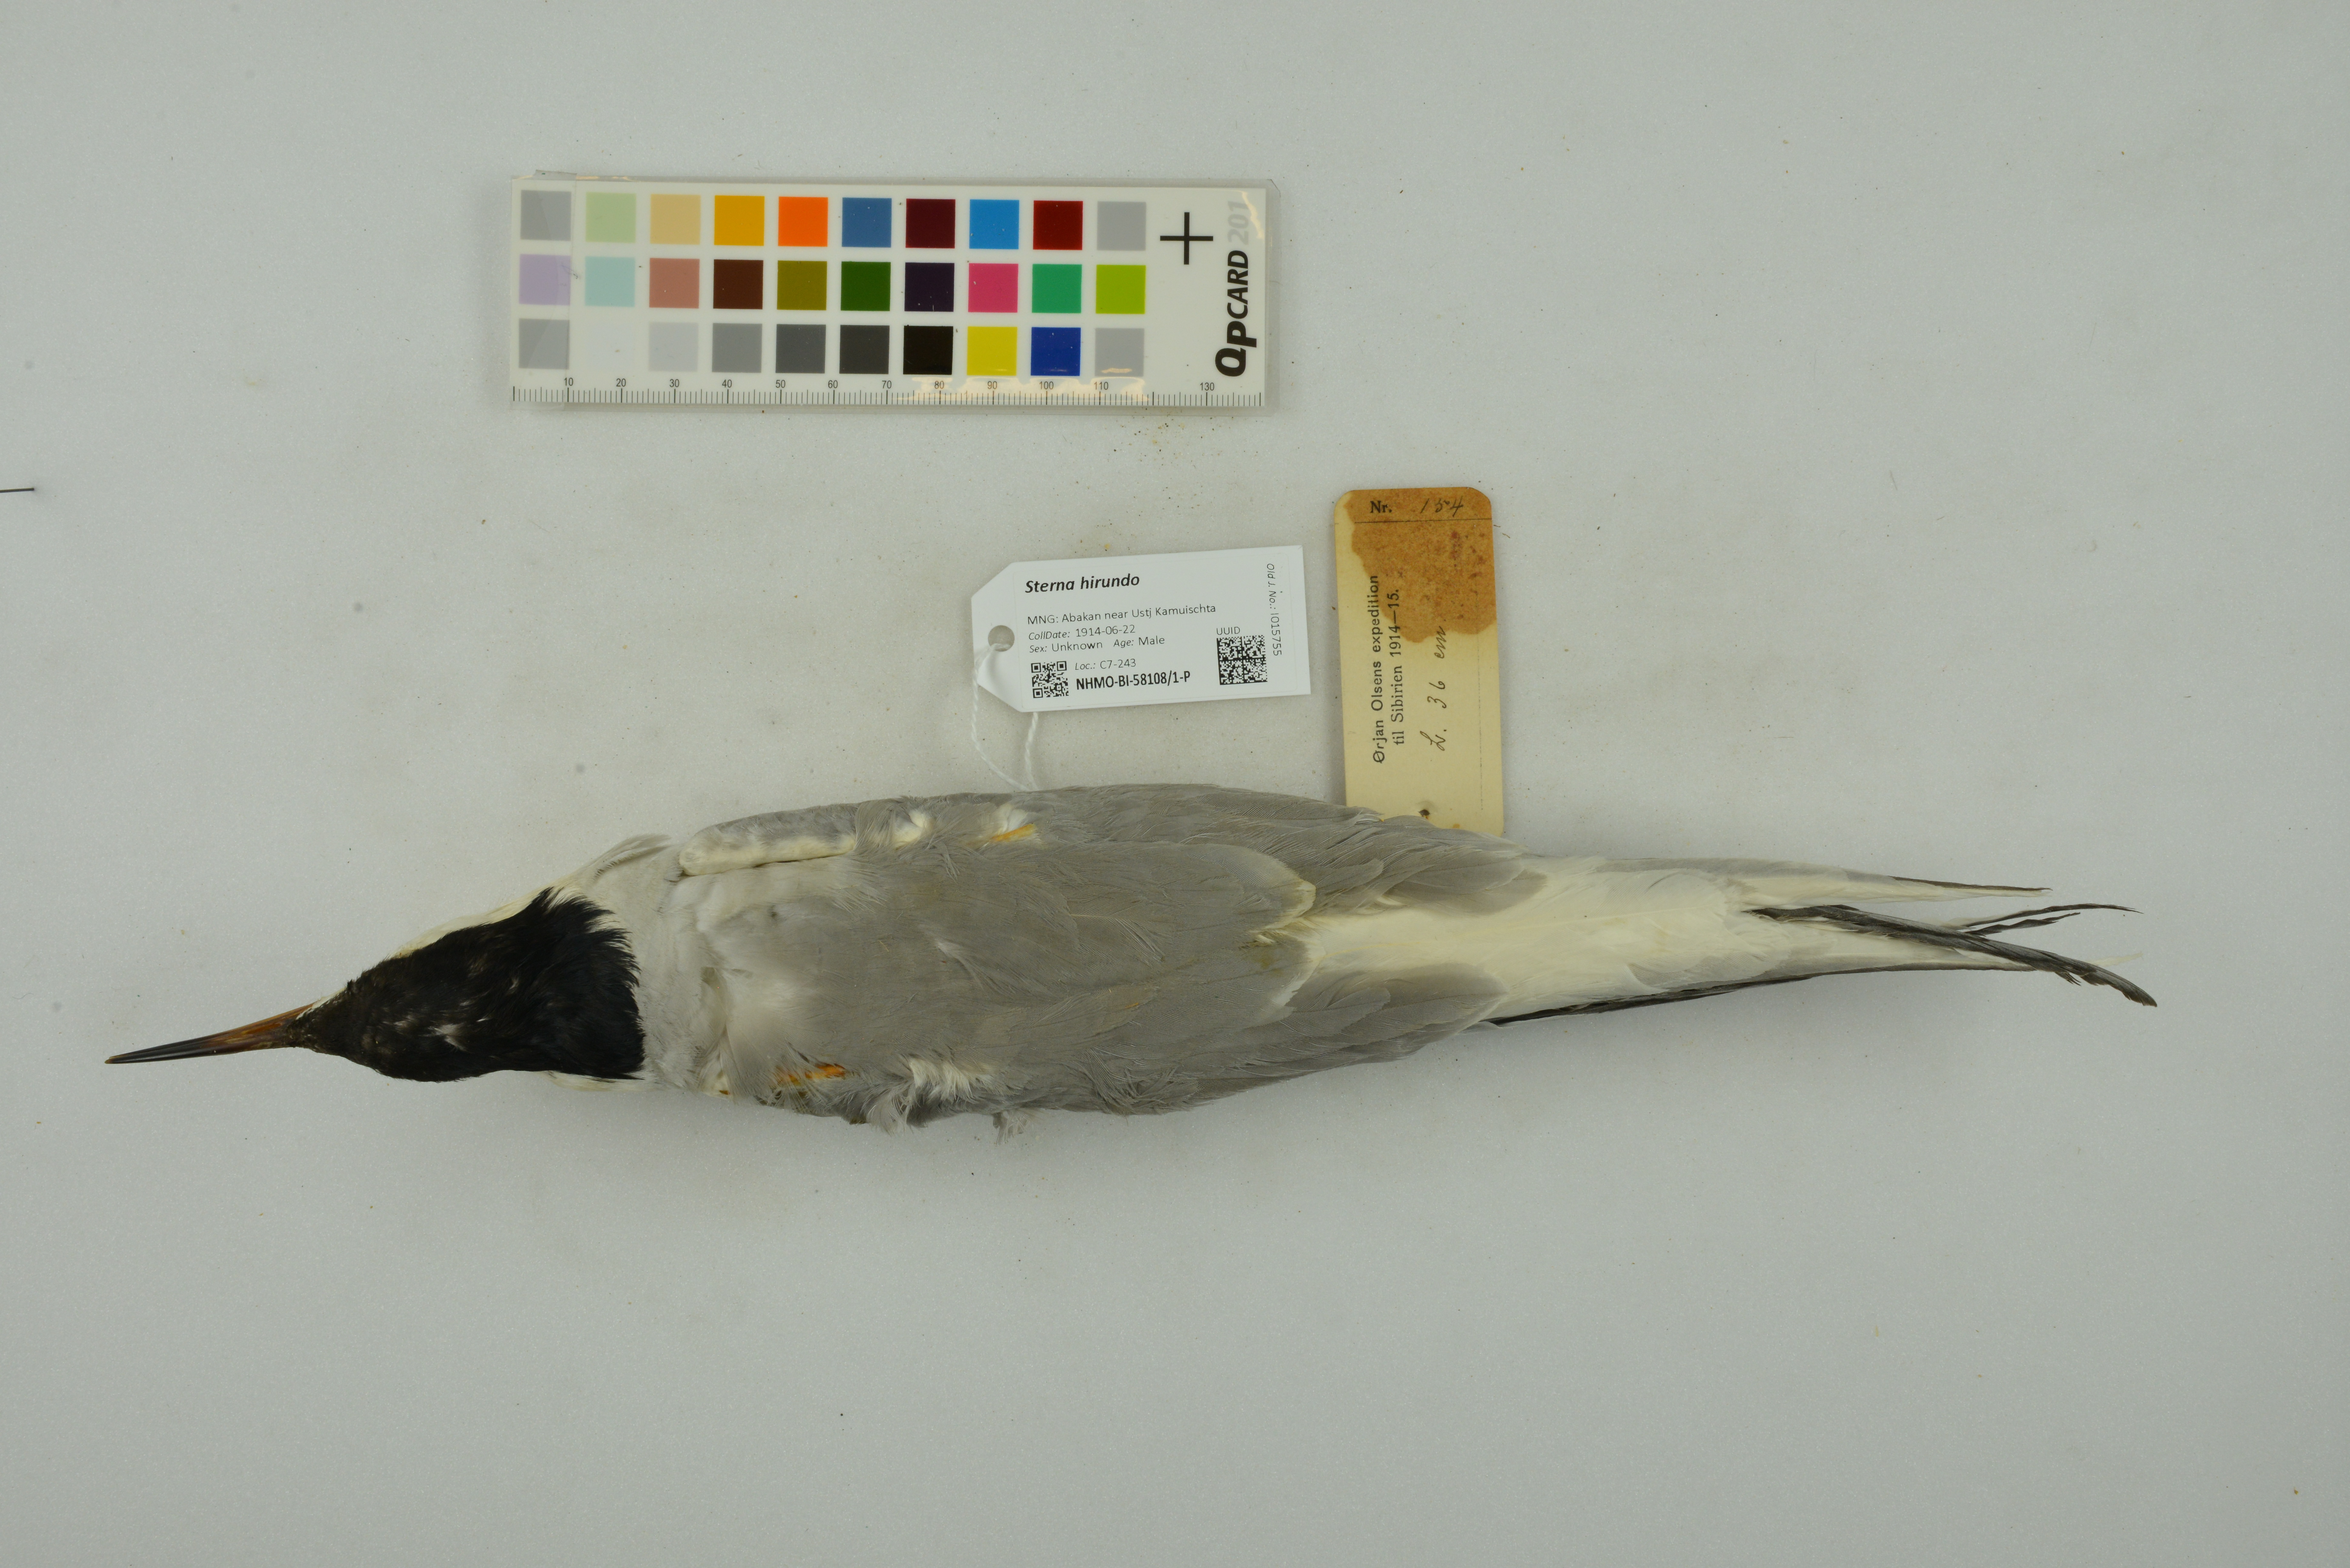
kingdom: Animalia
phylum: Chordata
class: Aves
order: Charadriiformes
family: Laridae
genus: Sterna
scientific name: Sterna hirundo
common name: Common tern
